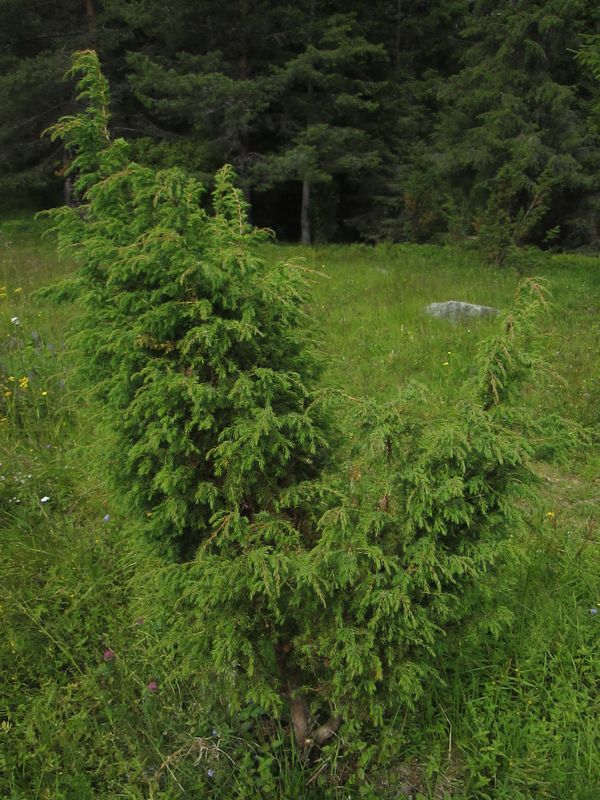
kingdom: Plantae
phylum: Tracheophyta
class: Pinopsida
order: Pinales
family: Cupressaceae
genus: Juniperus
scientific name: Juniperus communis
